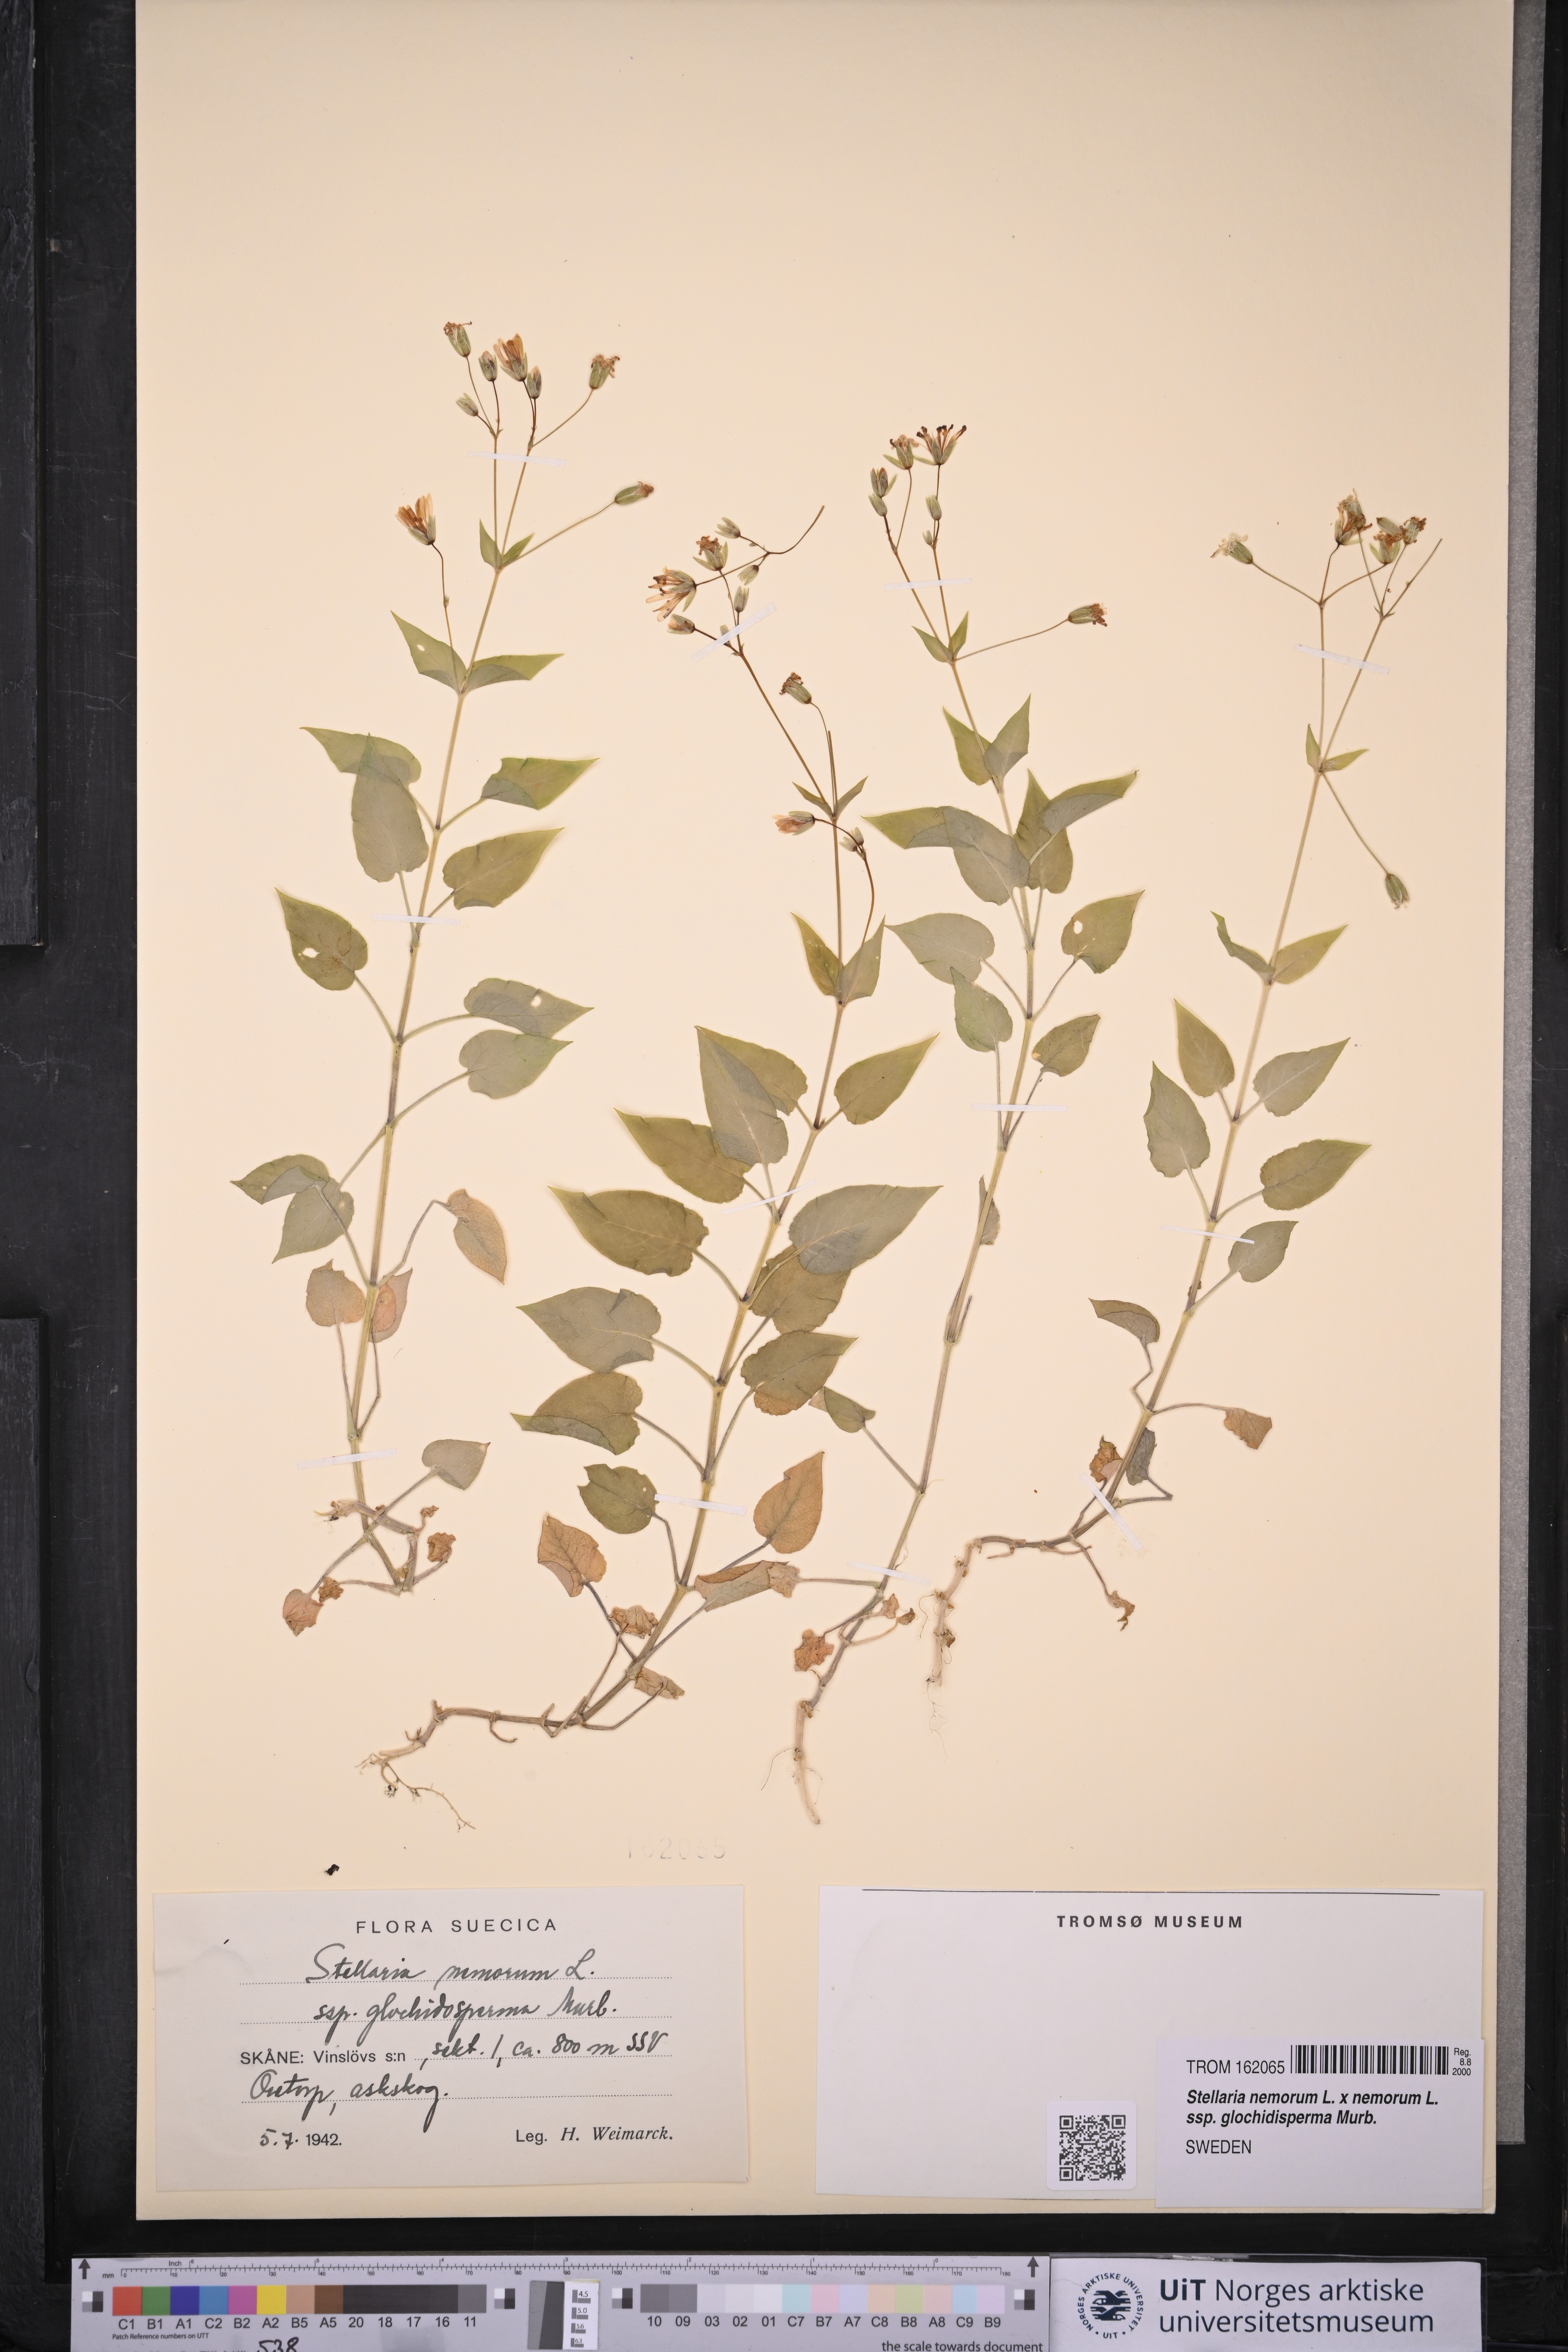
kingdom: Plantae
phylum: Tracheophyta
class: Magnoliopsida
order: Caryophyllales
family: Caryophyllaceae
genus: Stellaria
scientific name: Stellaria glochidisperma
